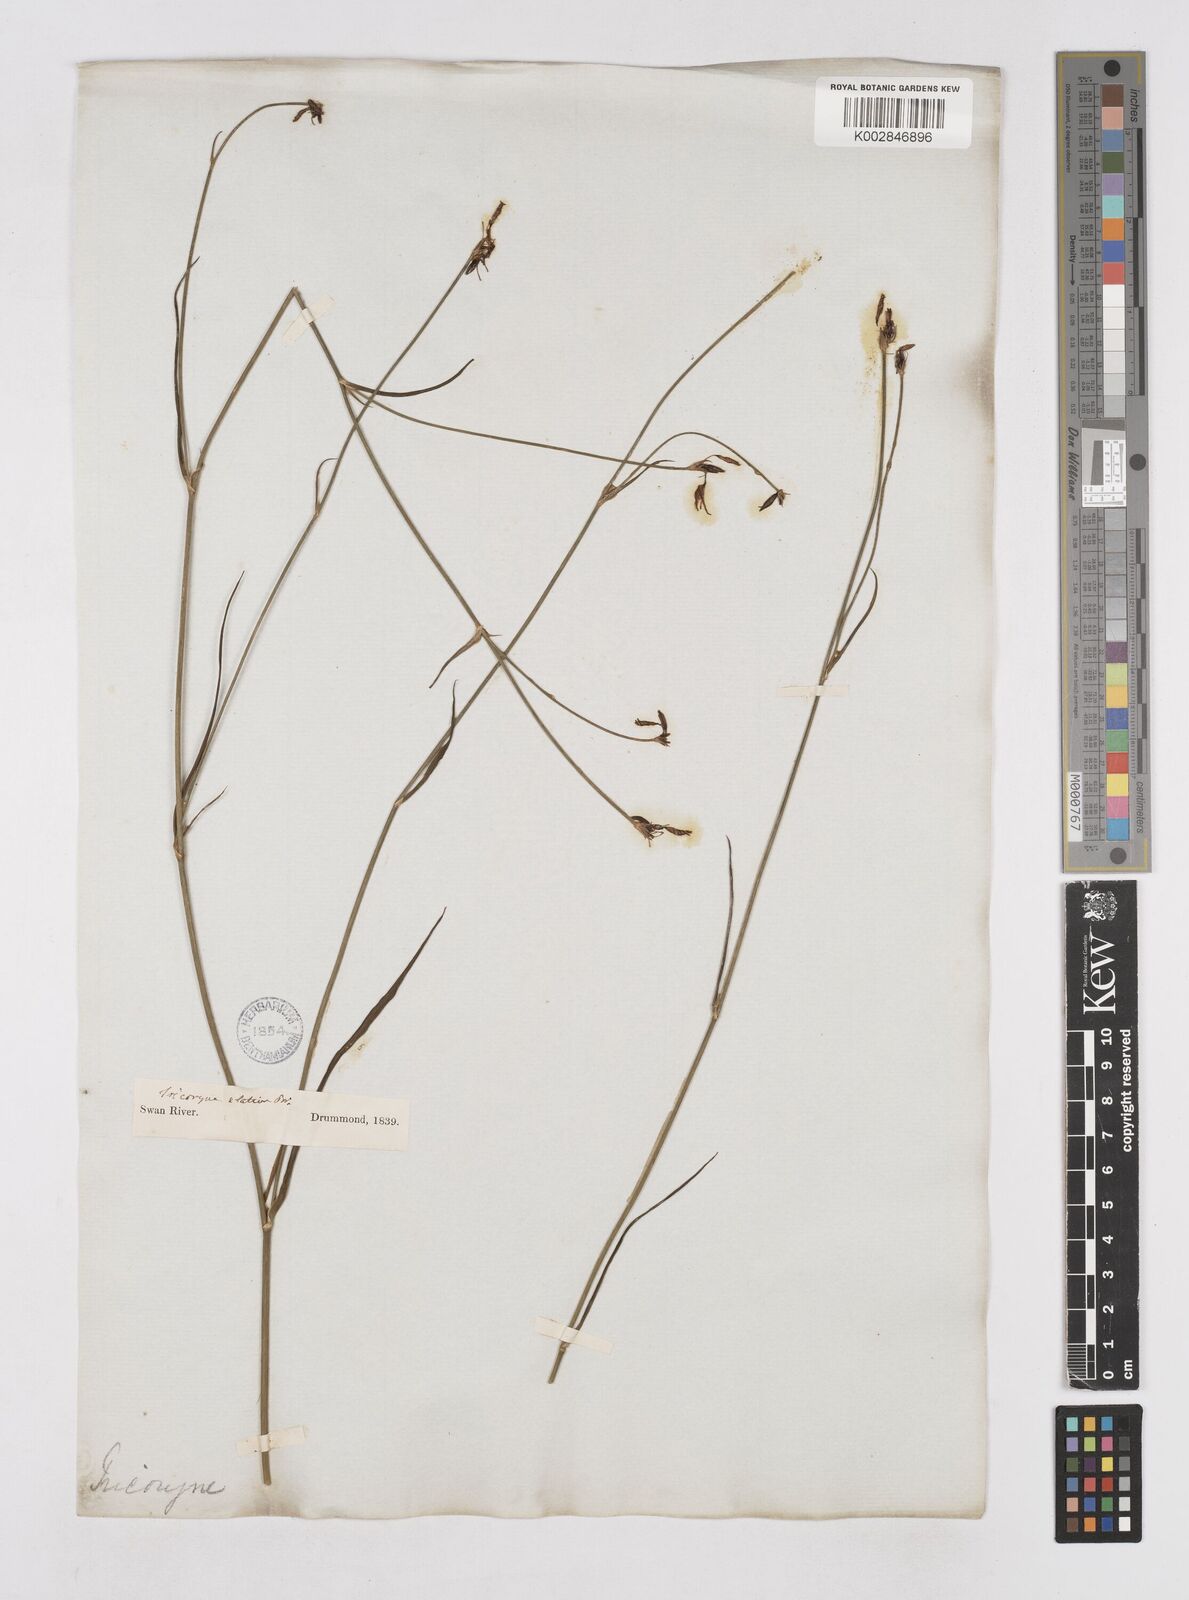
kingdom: Plantae
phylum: Tracheophyta
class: Liliopsida
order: Asparagales
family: Asphodelaceae
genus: Tricoryne
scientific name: Tricoryne elatior
